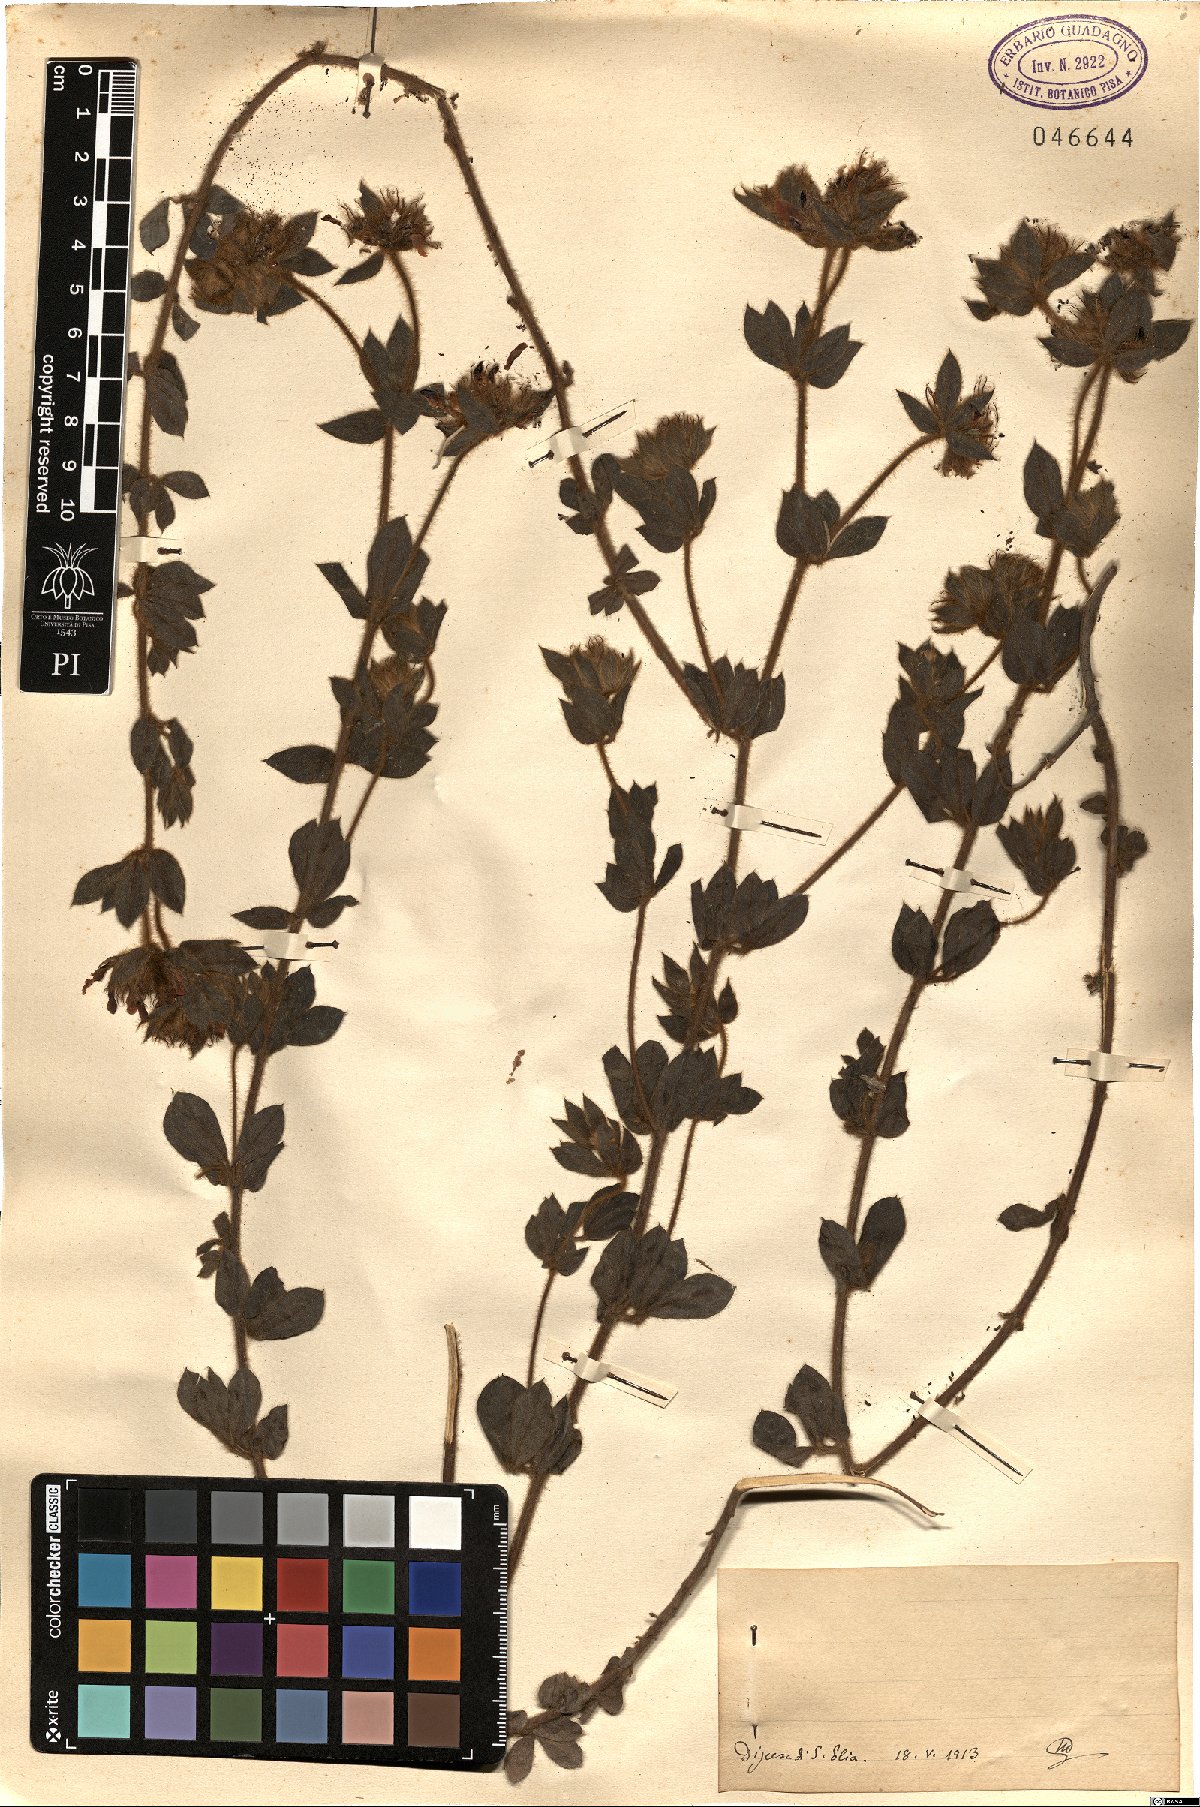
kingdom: Plantae
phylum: Tracheophyta
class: Magnoliopsida
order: Fabales
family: Fabaceae
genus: Lotus
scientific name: Lotus
